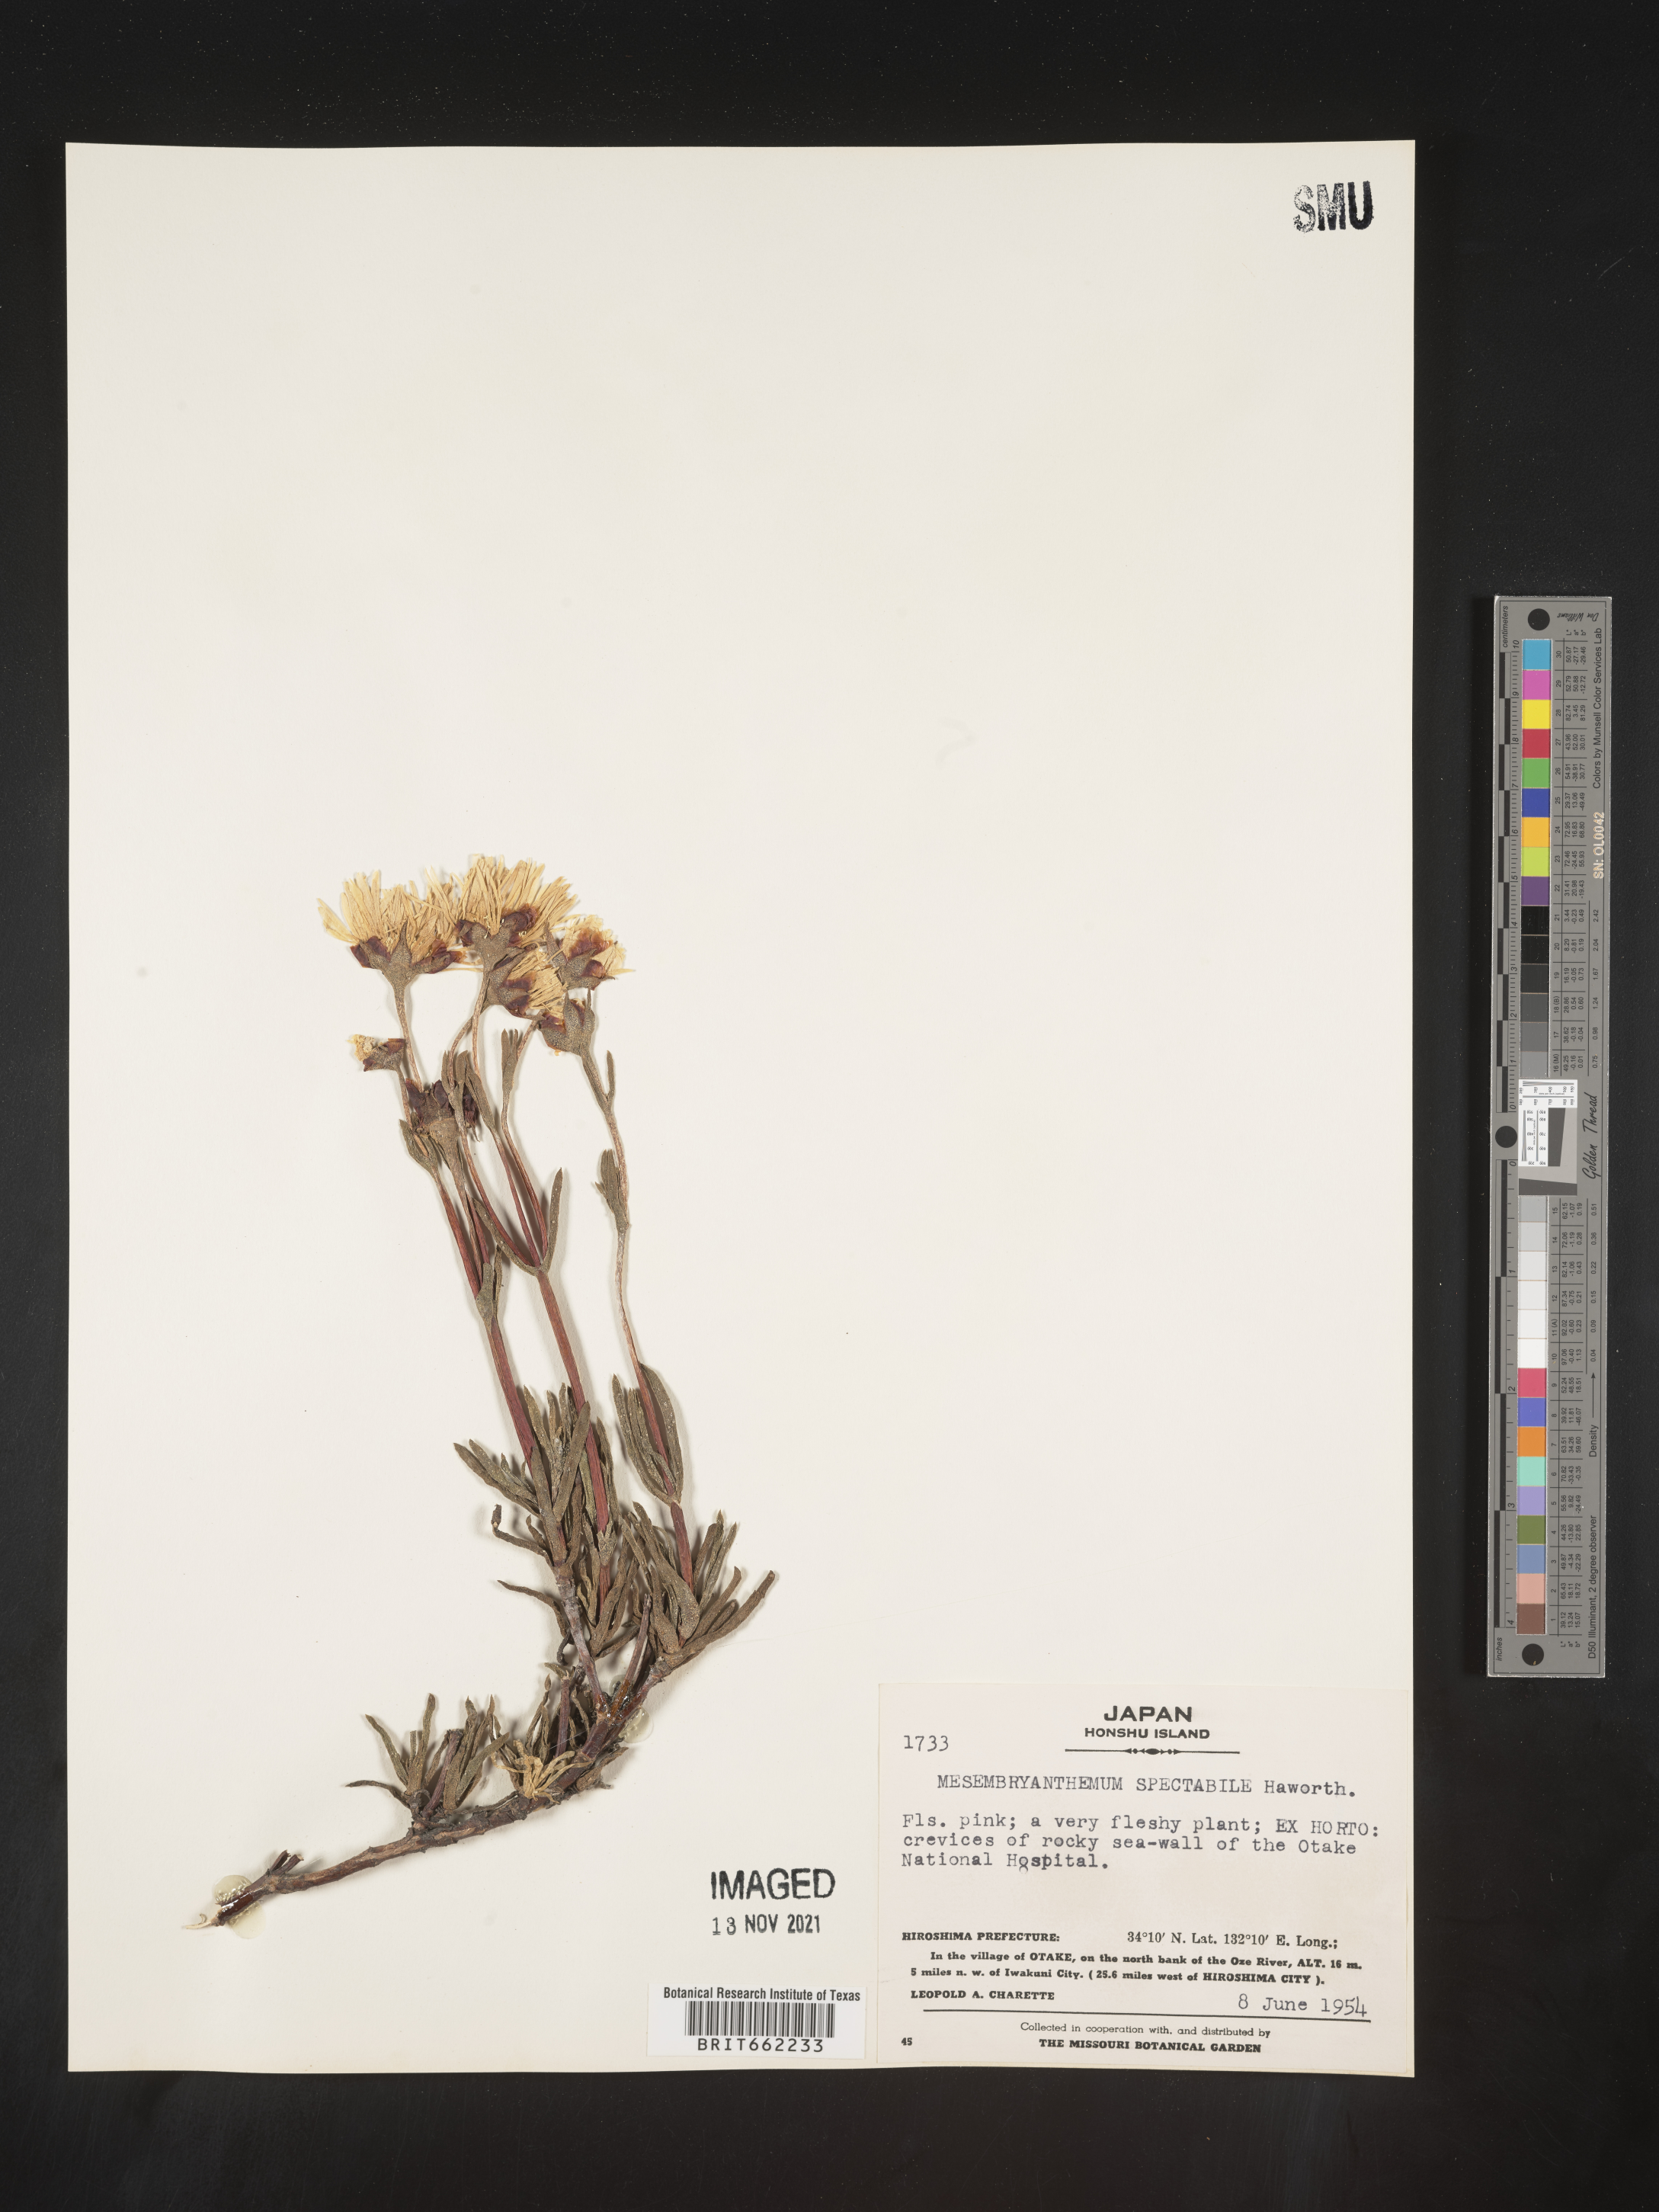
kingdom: Plantae
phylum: Tracheophyta
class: Magnoliopsida
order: Caryophyllales
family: Aizoaceae
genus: Mesembryanthemum
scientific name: Mesembryanthemum
